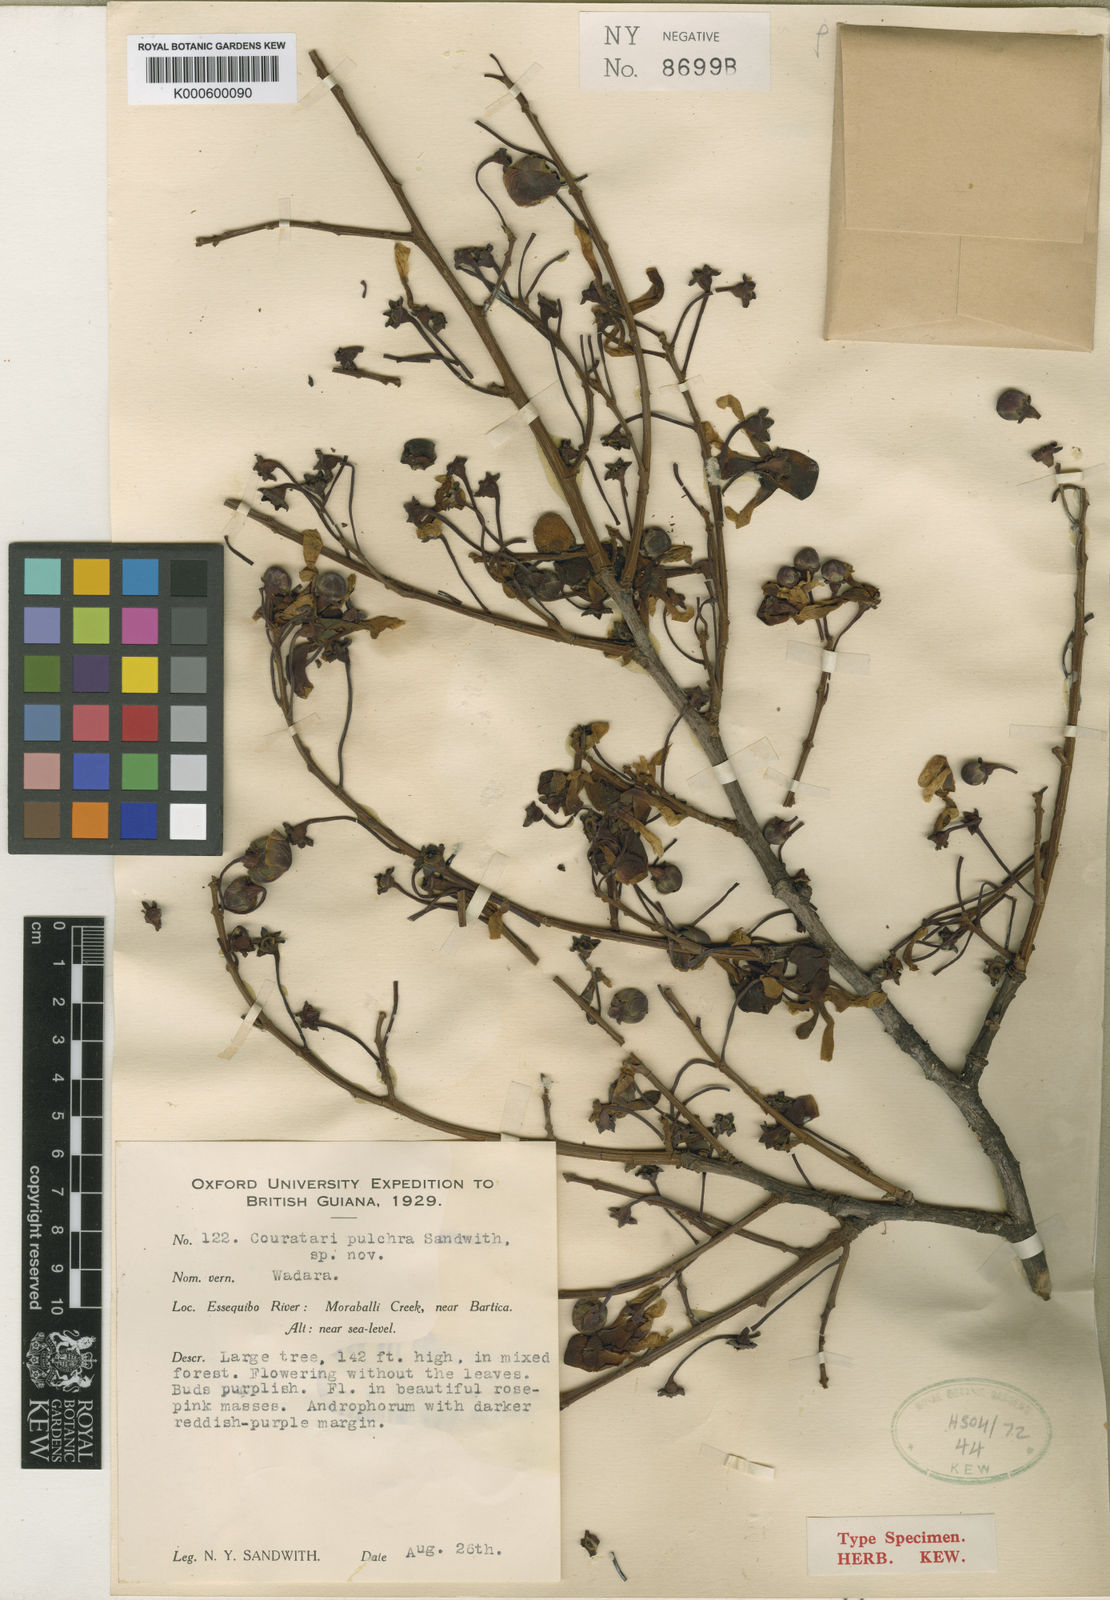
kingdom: Plantae
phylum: Tracheophyta
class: Magnoliopsida
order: Ericales
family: Lecythidaceae
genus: Couratari
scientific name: Couratari guianensis
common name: Fine-leaf wadara
